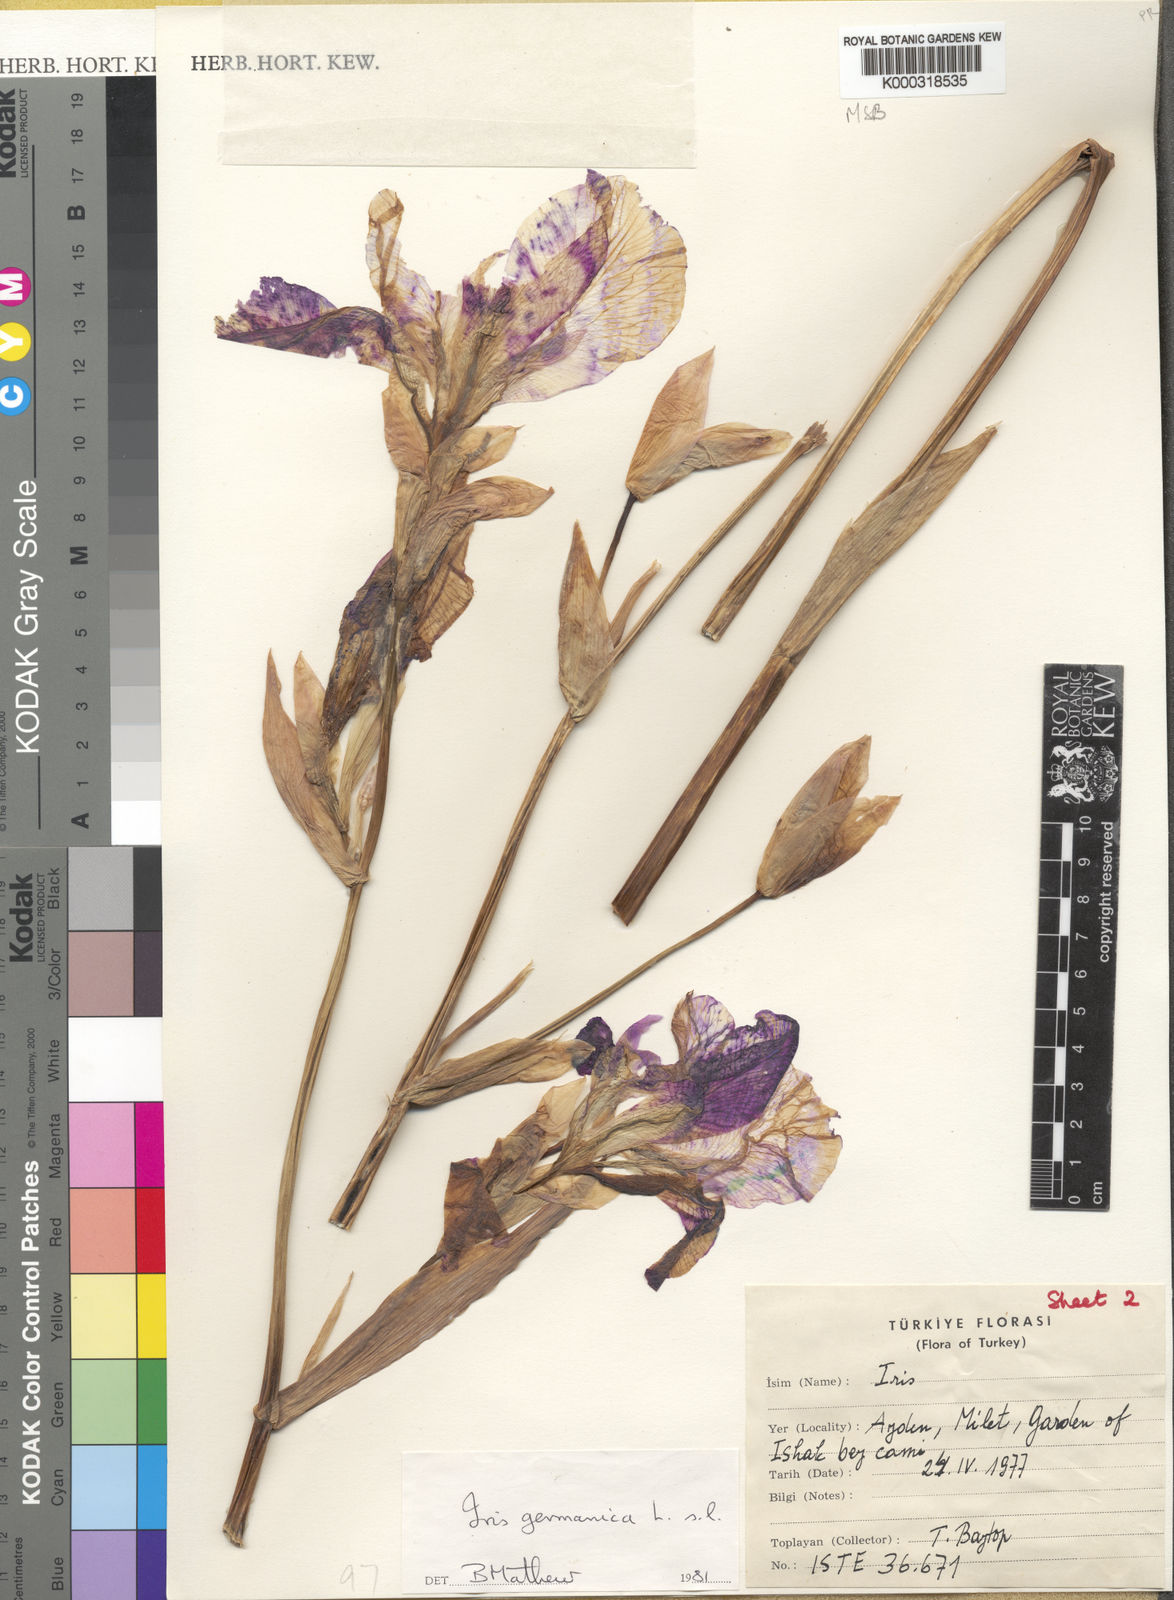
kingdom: Plantae
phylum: Tracheophyta
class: Liliopsida
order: Asparagales
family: Iridaceae
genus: Iris
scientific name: Iris germanica
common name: German iris
